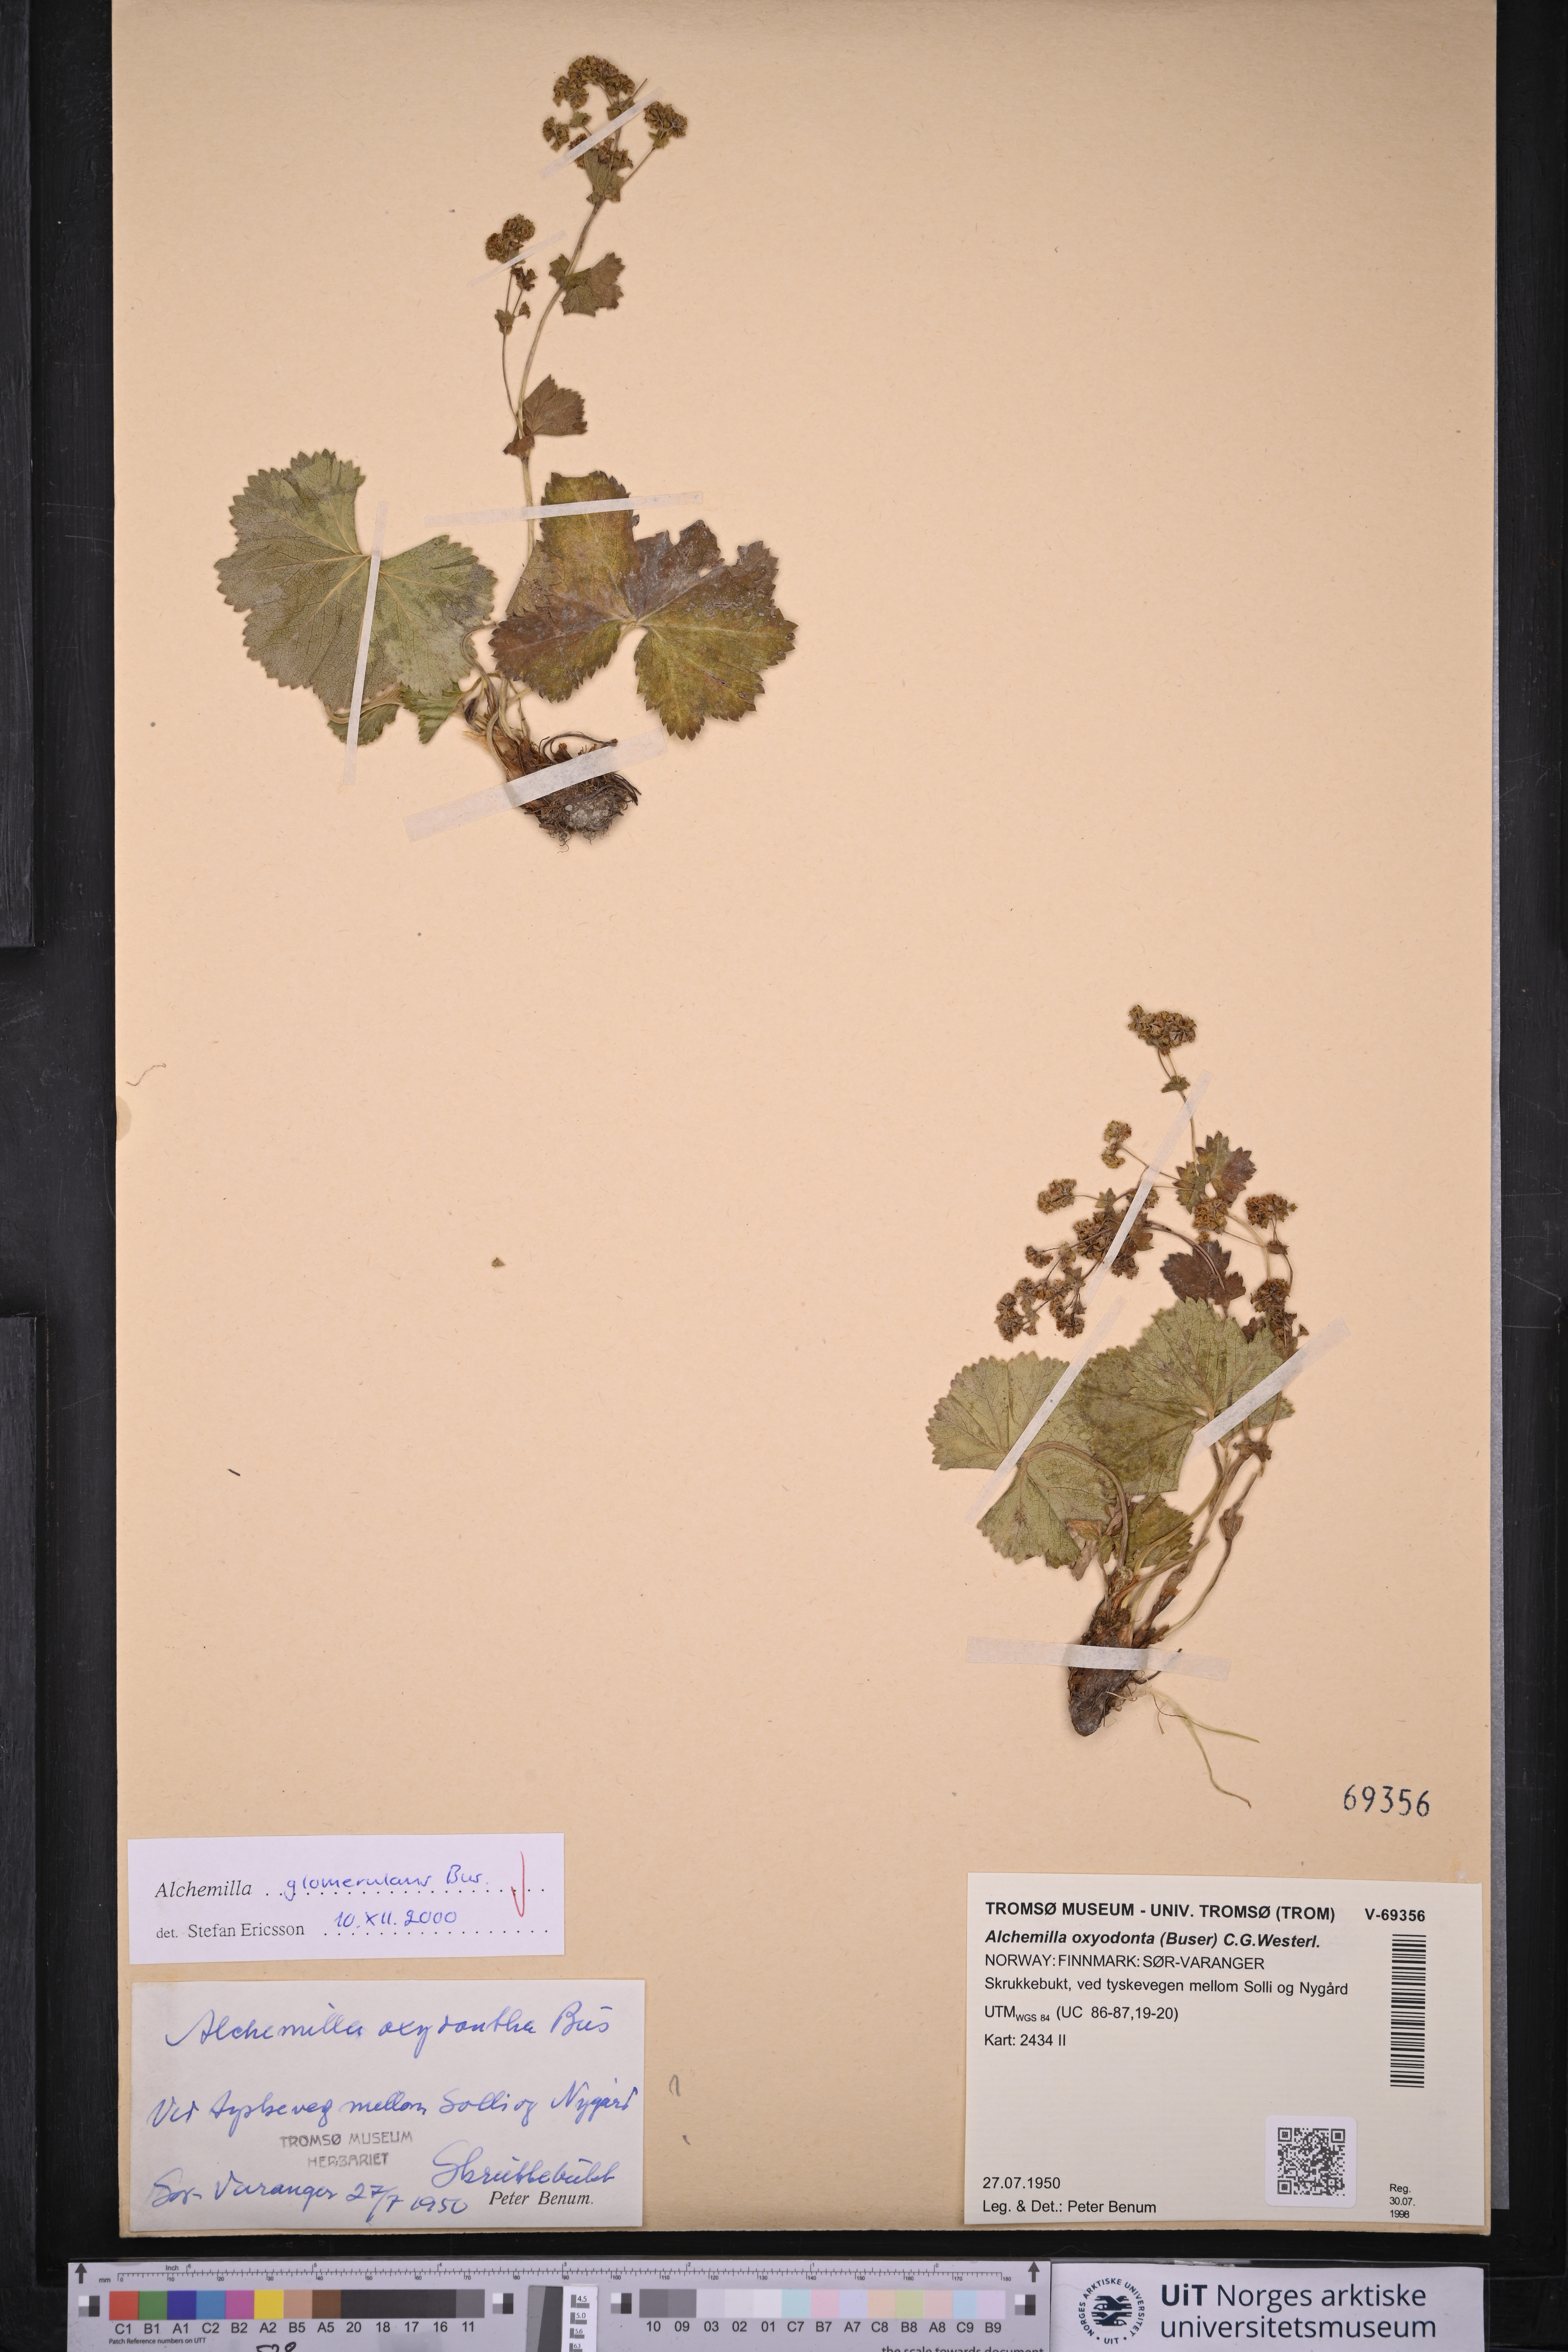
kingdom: Plantae
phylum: Tracheophyta
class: Magnoliopsida
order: Rosales
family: Rosaceae
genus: Alchemilla
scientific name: Alchemilla glomerulans
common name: Clustered lady's mantle
